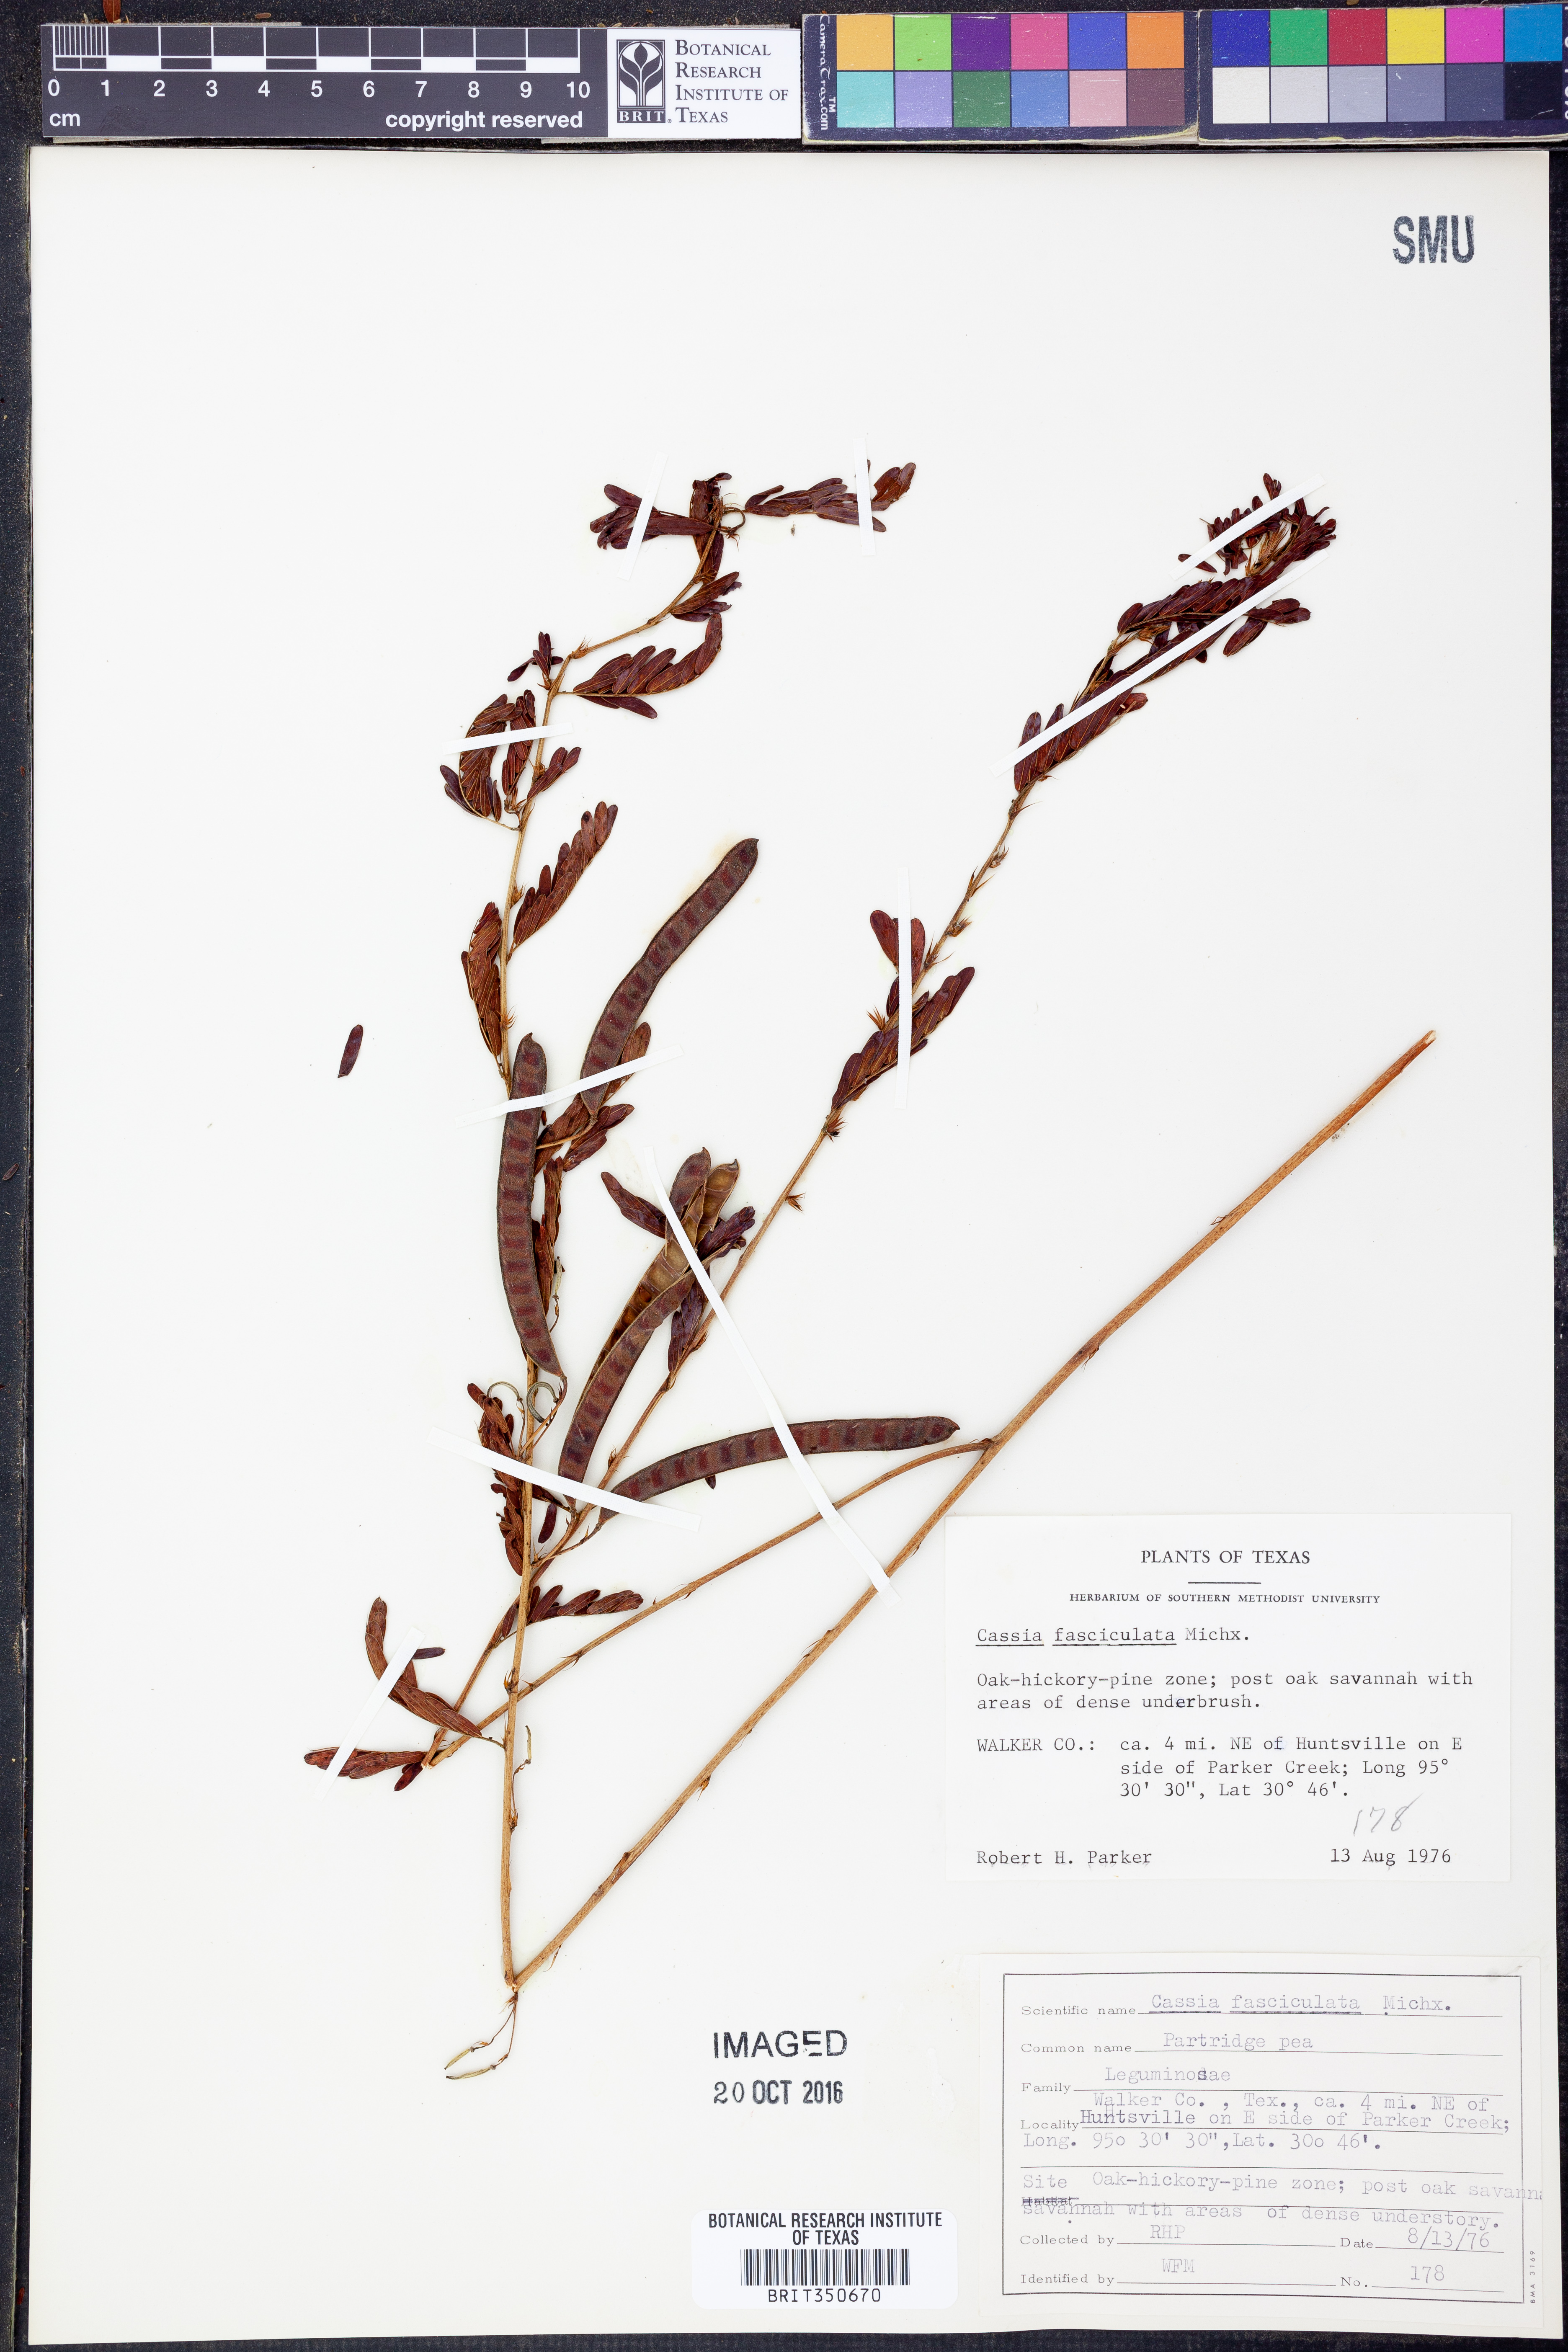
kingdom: Plantae
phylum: Tracheophyta
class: Magnoliopsida
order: Fabales
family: Fabaceae
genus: Chamaecrista
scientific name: Chamaecrista fasciculata
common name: Golden cassia
